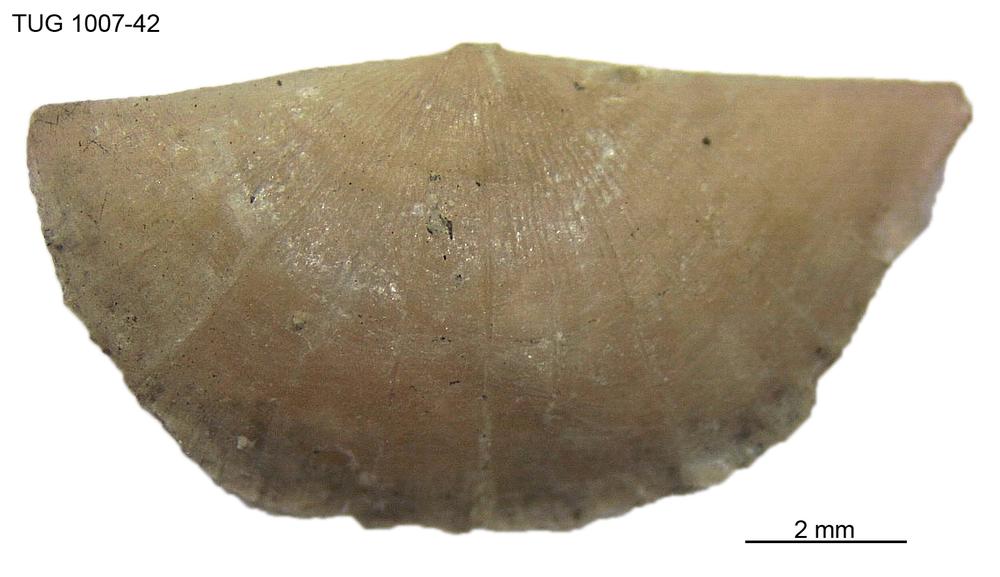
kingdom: Animalia
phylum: Brachiopoda
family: Oldhaminidae
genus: Eoplectodonta
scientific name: Eoplectodonta
